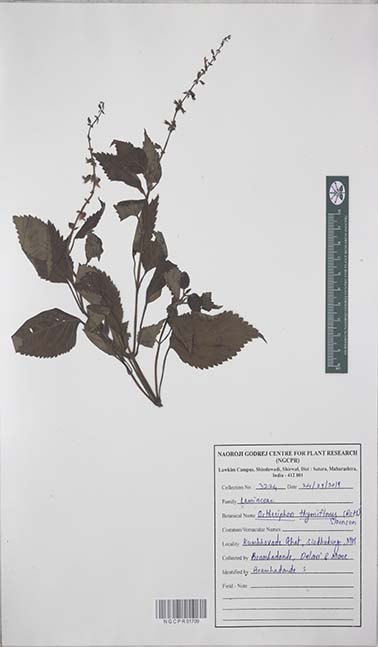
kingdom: Plantae
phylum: Tracheophyta
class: Magnoliopsida
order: Lamiales
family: Lamiaceae
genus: Orthosiphon
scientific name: Orthosiphon thymiflorus
